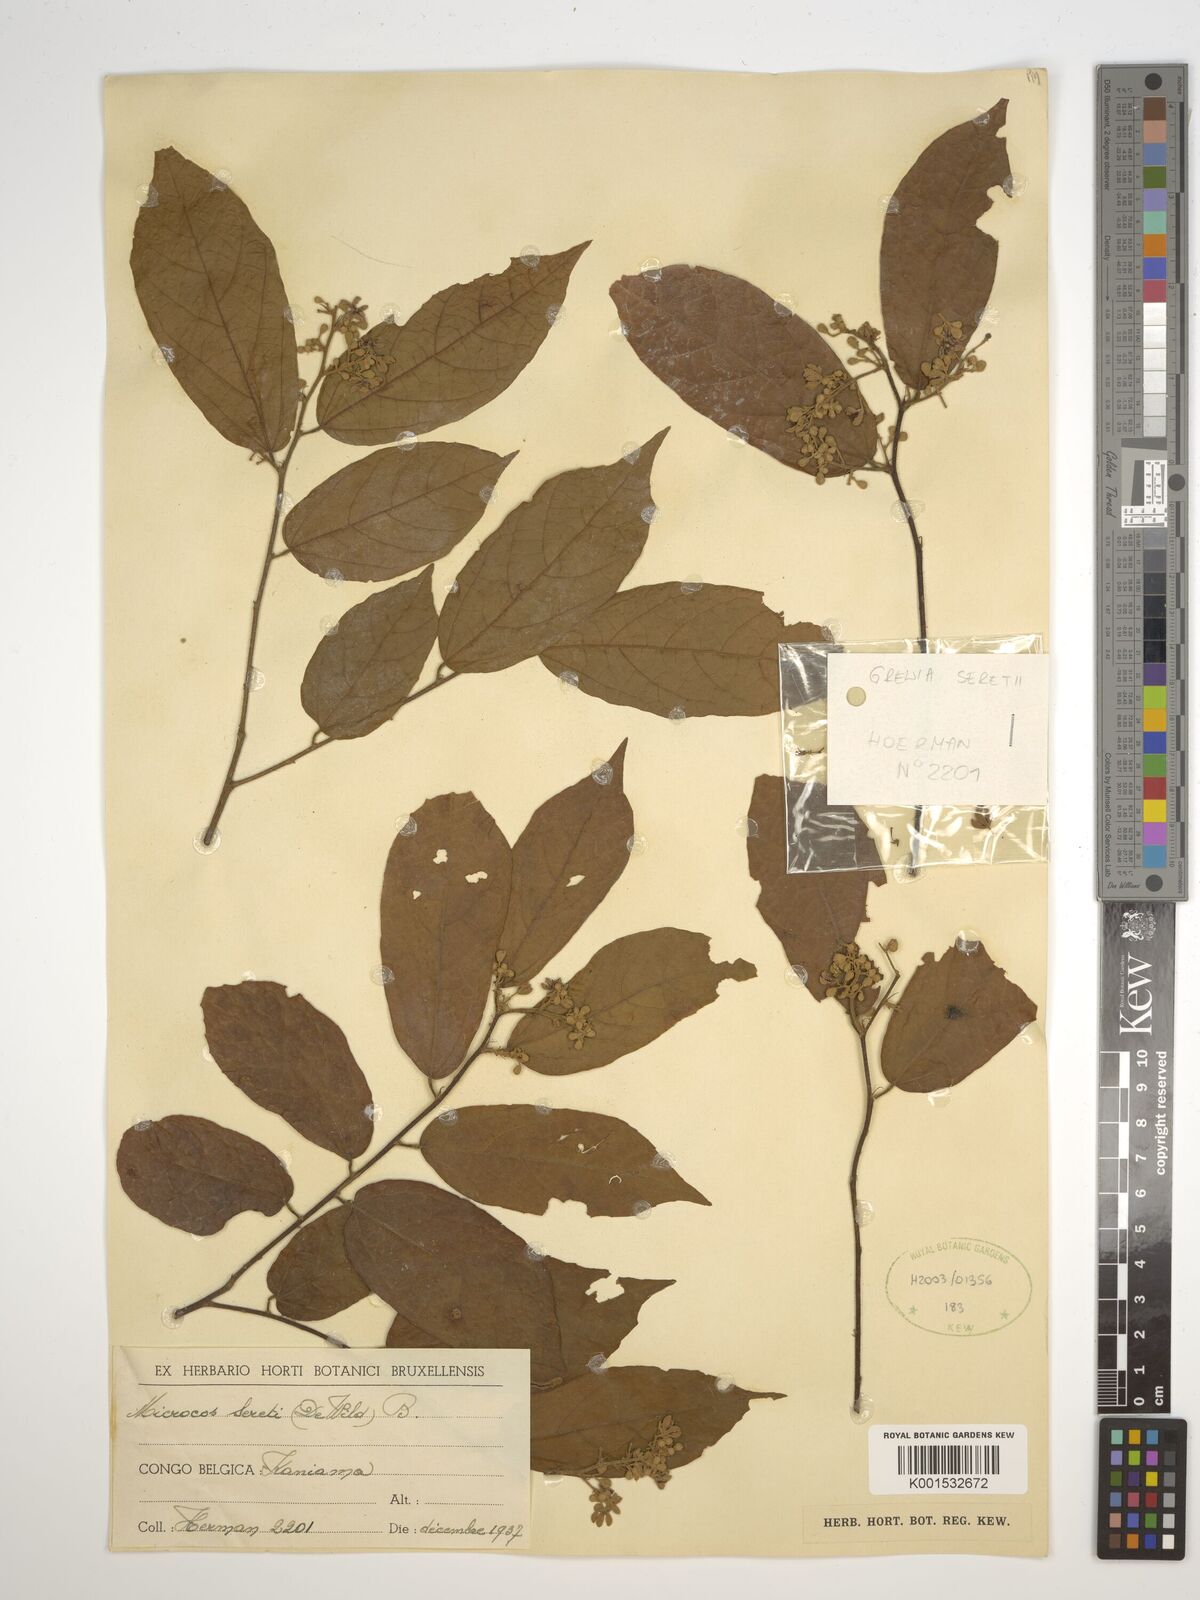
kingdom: Plantae
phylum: Tracheophyta
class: Magnoliopsida
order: Malvales
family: Malvaceae
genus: Microcos
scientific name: Microcos seretii
